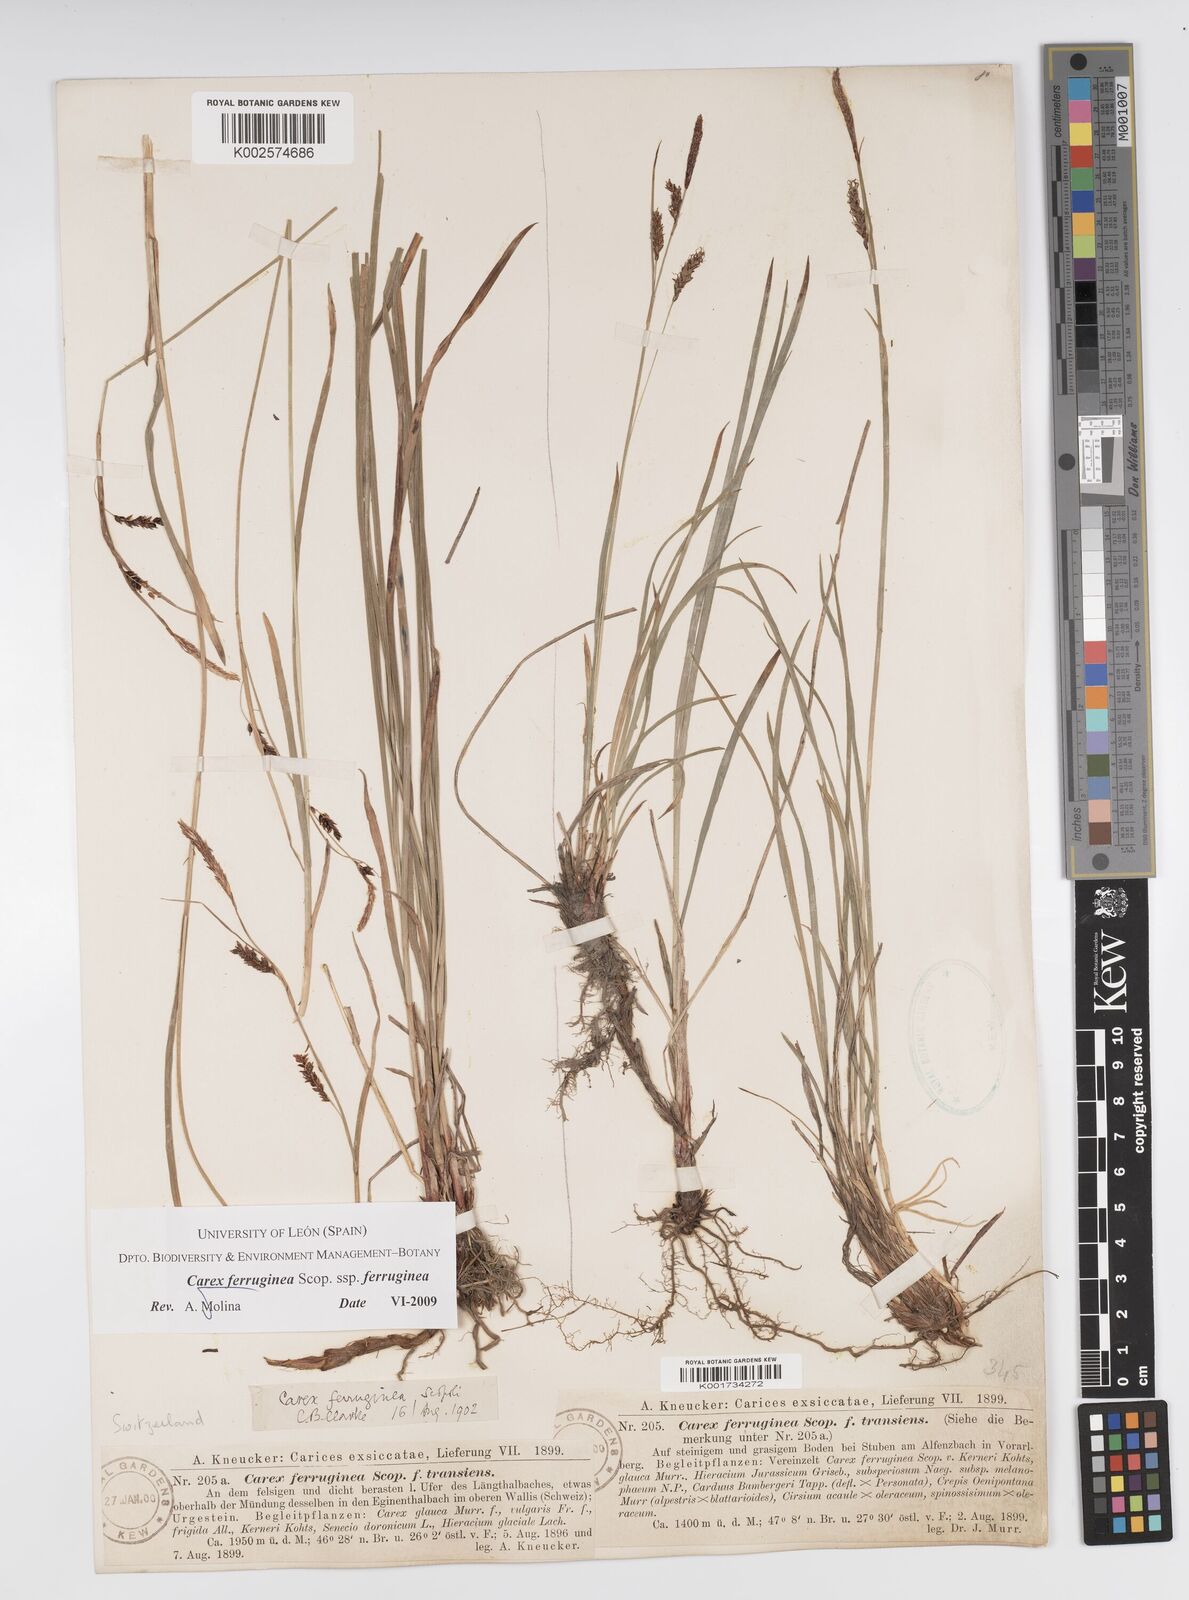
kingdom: Plantae
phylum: Tracheophyta
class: Liliopsida
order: Poales
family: Cyperaceae
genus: Carex
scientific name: Carex ferruginea
